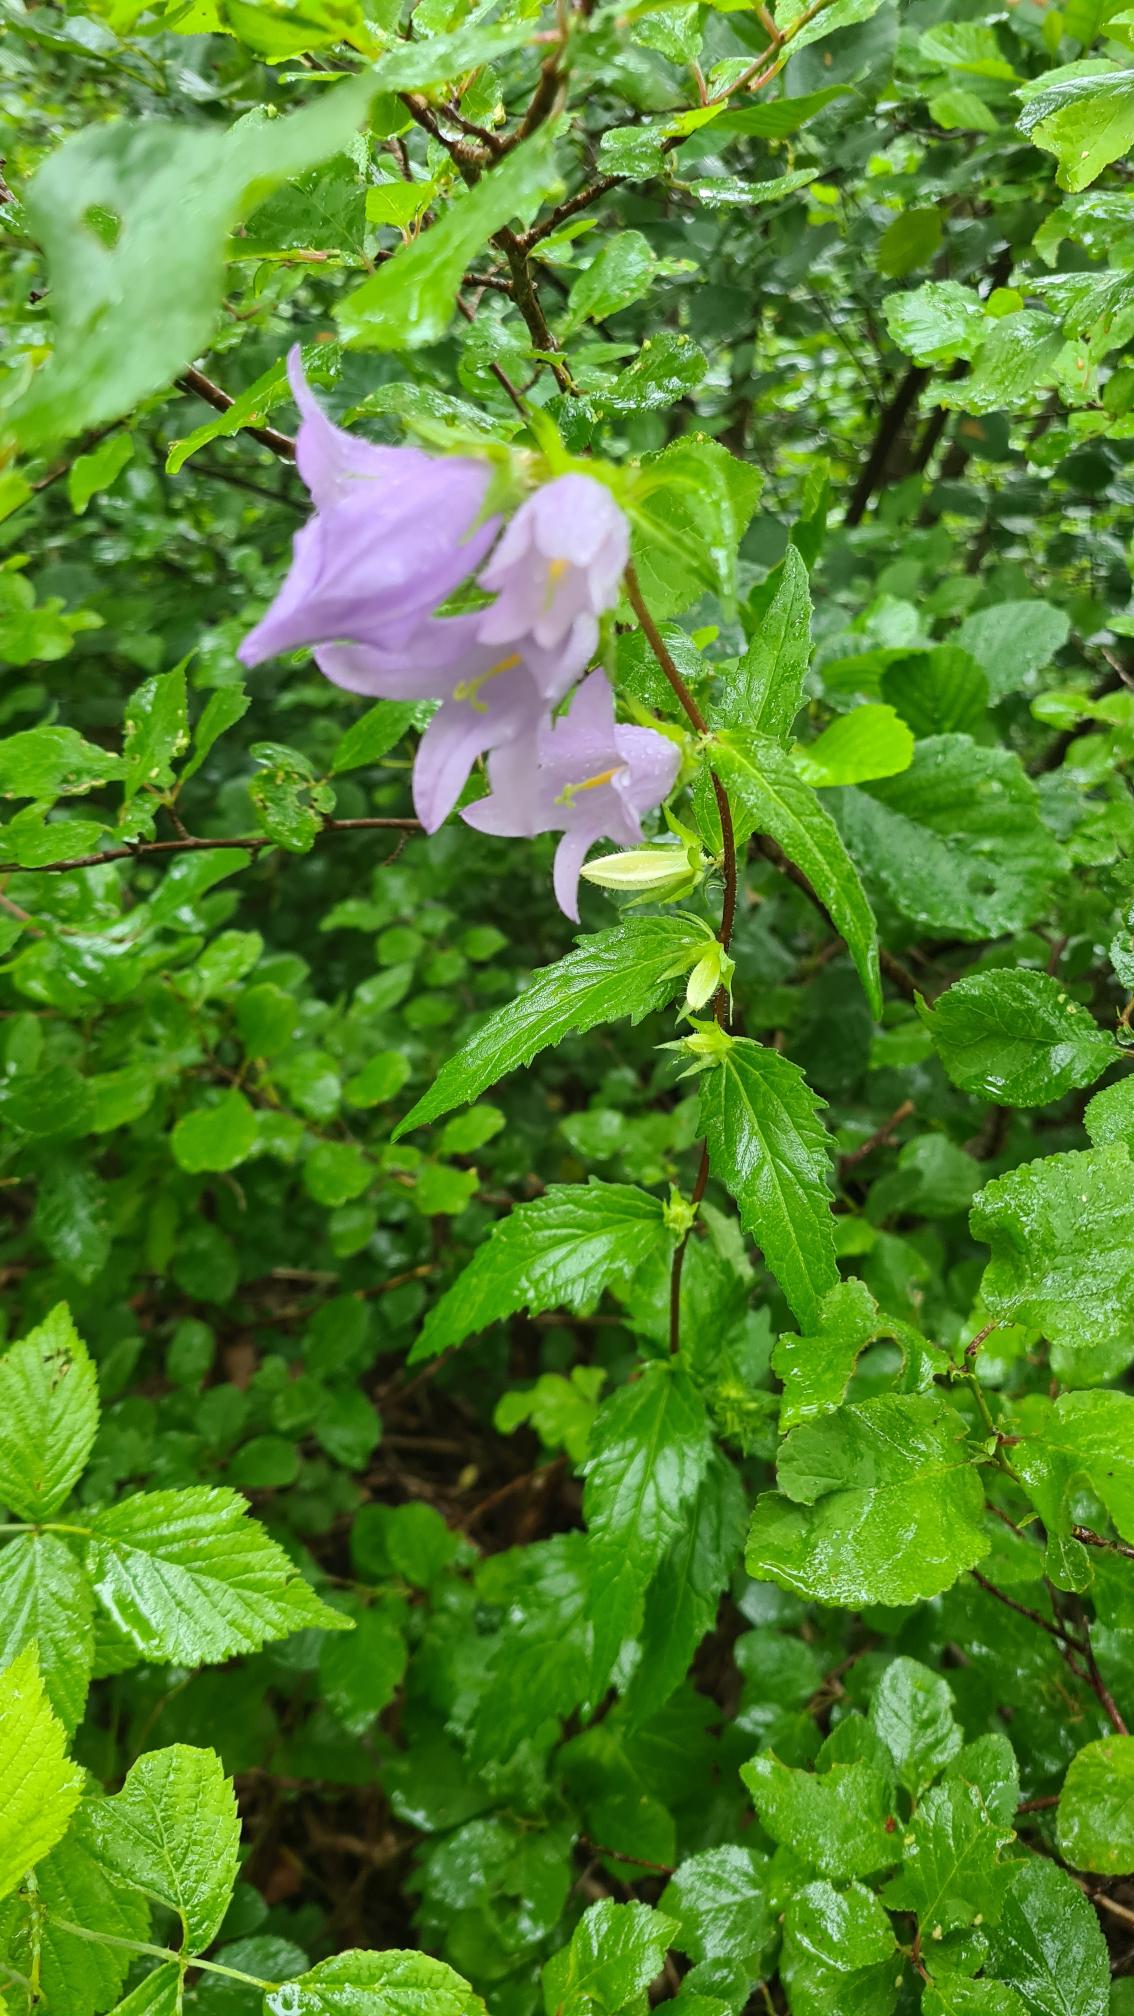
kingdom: Plantae
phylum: Tracheophyta
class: Magnoliopsida
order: Asterales
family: Campanulaceae
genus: Campanula
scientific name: Campanula trachelium
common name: Nælde-klokke
